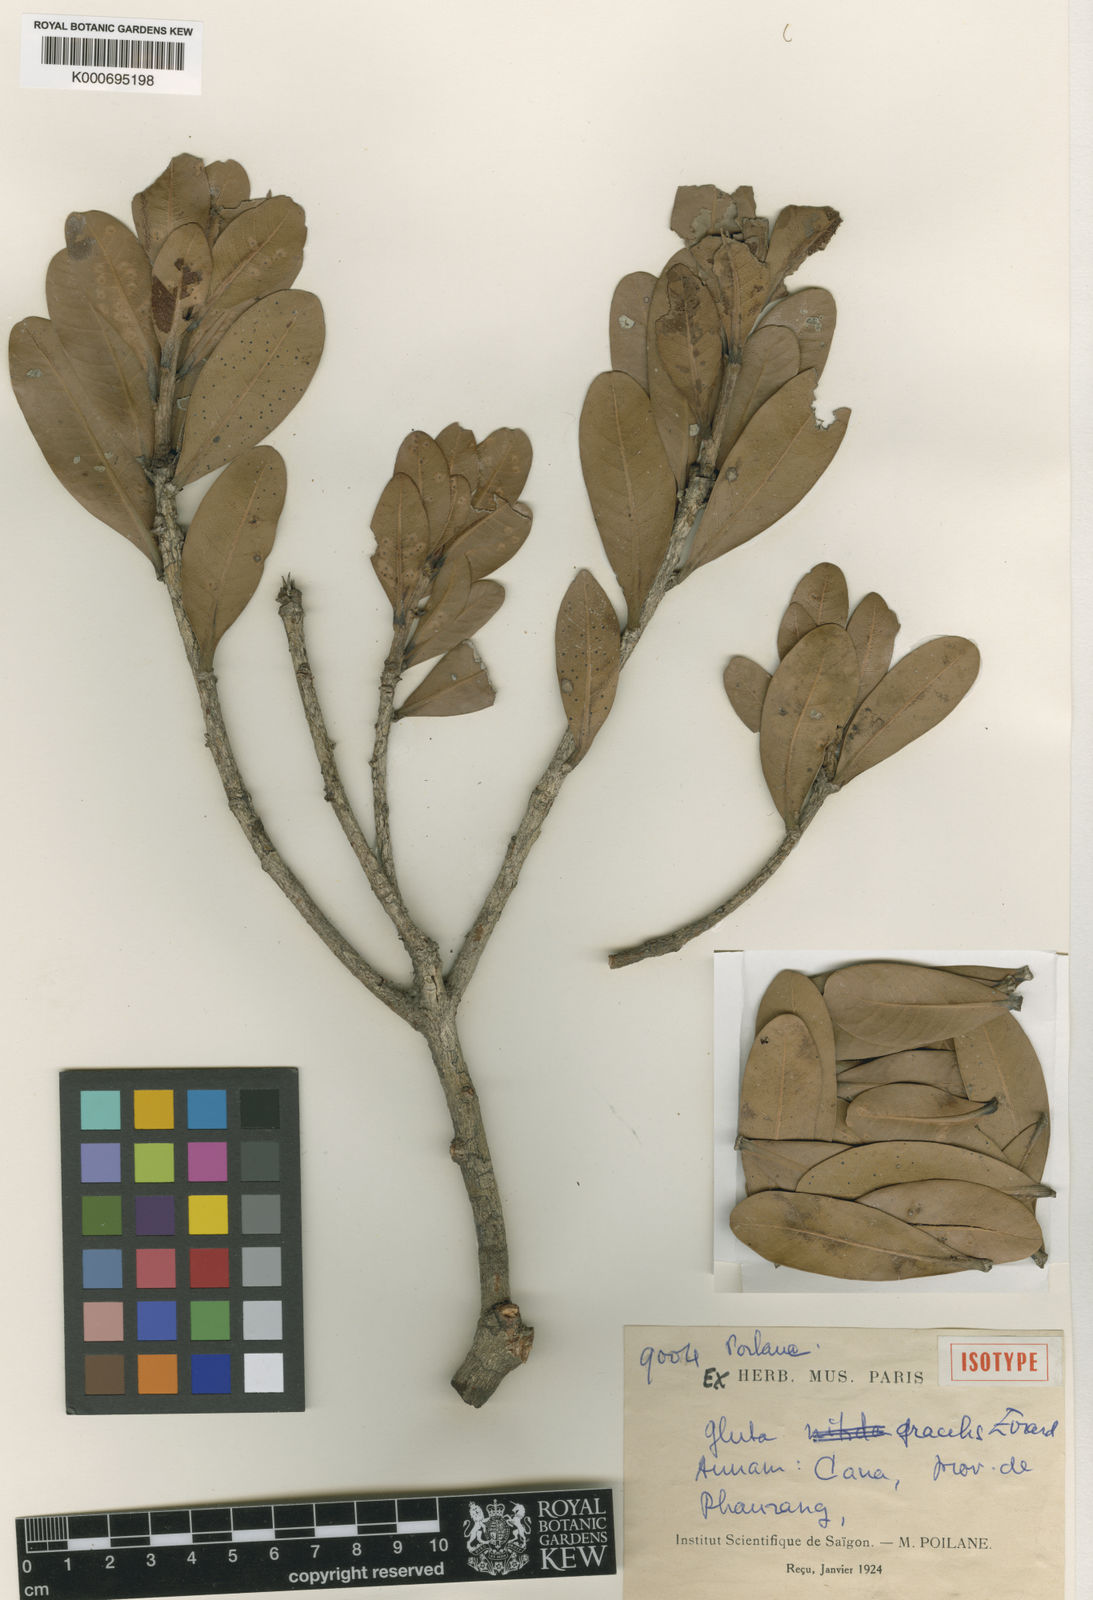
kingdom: Plantae
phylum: Tracheophyta
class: Magnoliopsida
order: Sapindales
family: Anacardiaceae
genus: Gluta
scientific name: Gluta gracilis
